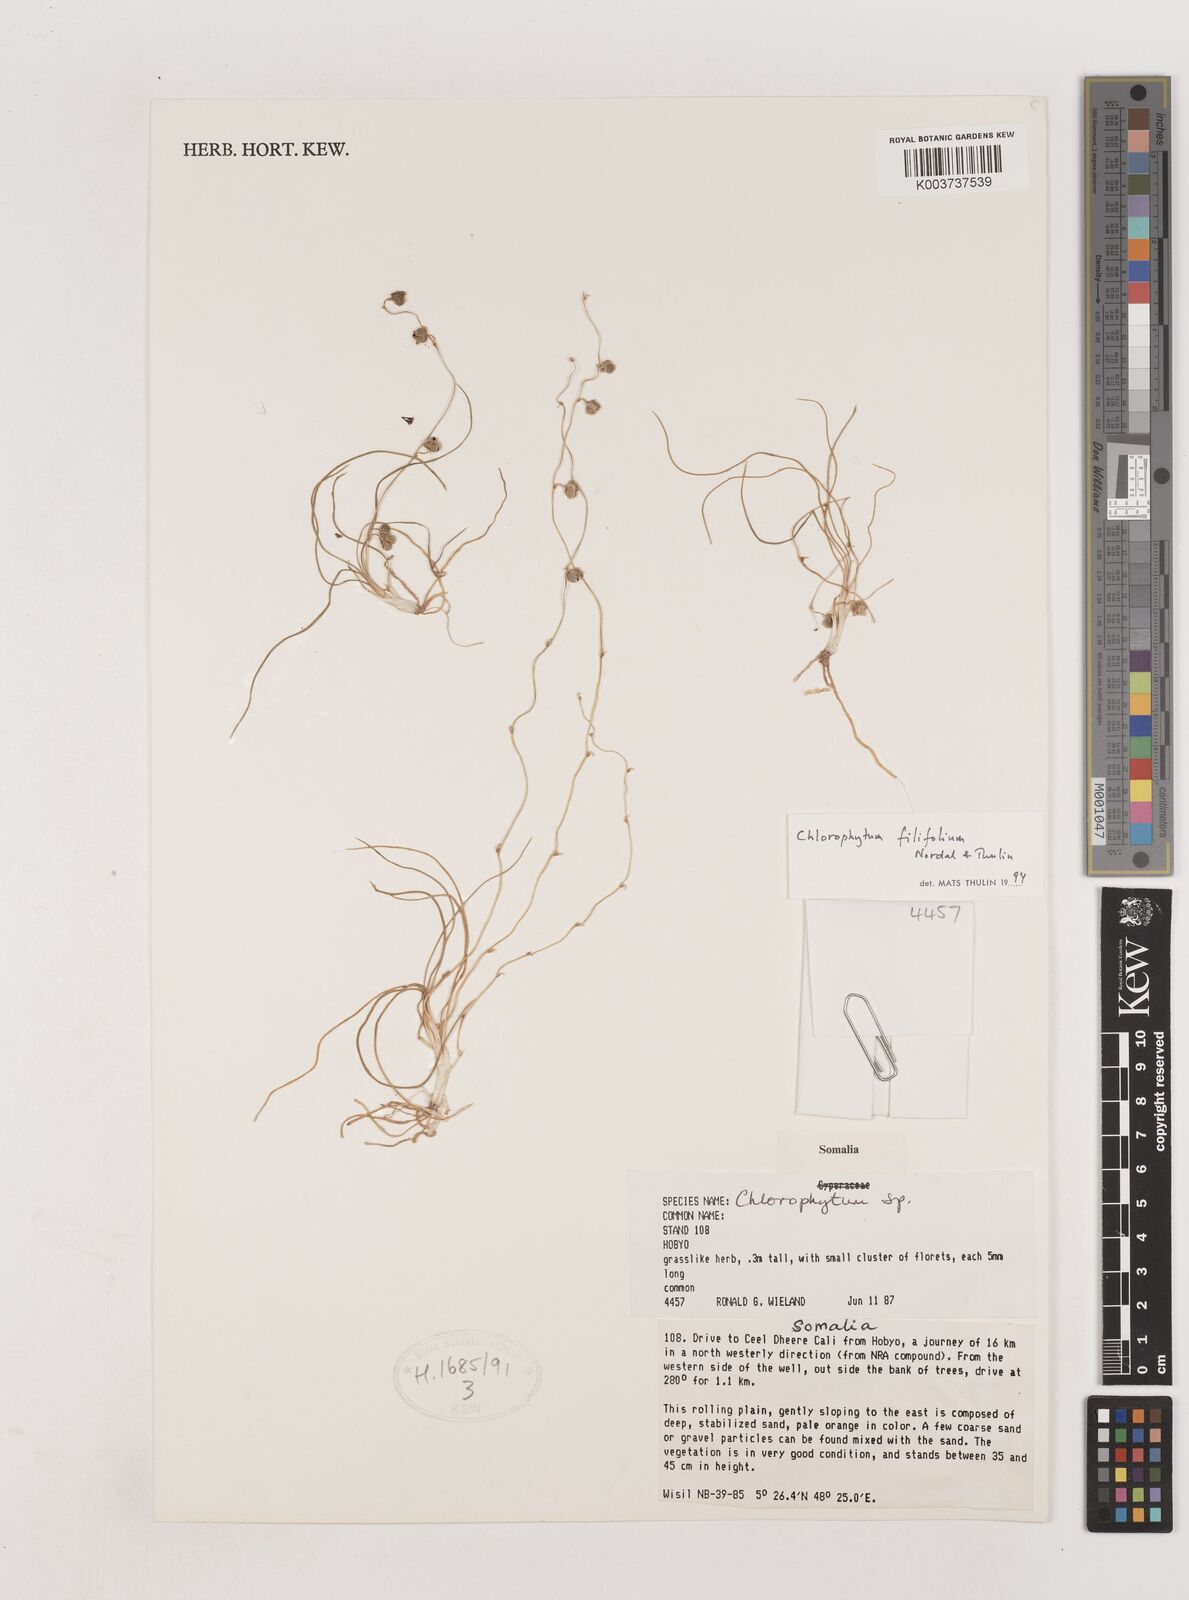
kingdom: Plantae
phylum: Tracheophyta
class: Liliopsida
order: Asparagales
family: Asparagaceae
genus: Chlorophytum
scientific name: Chlorophytum filifolium
